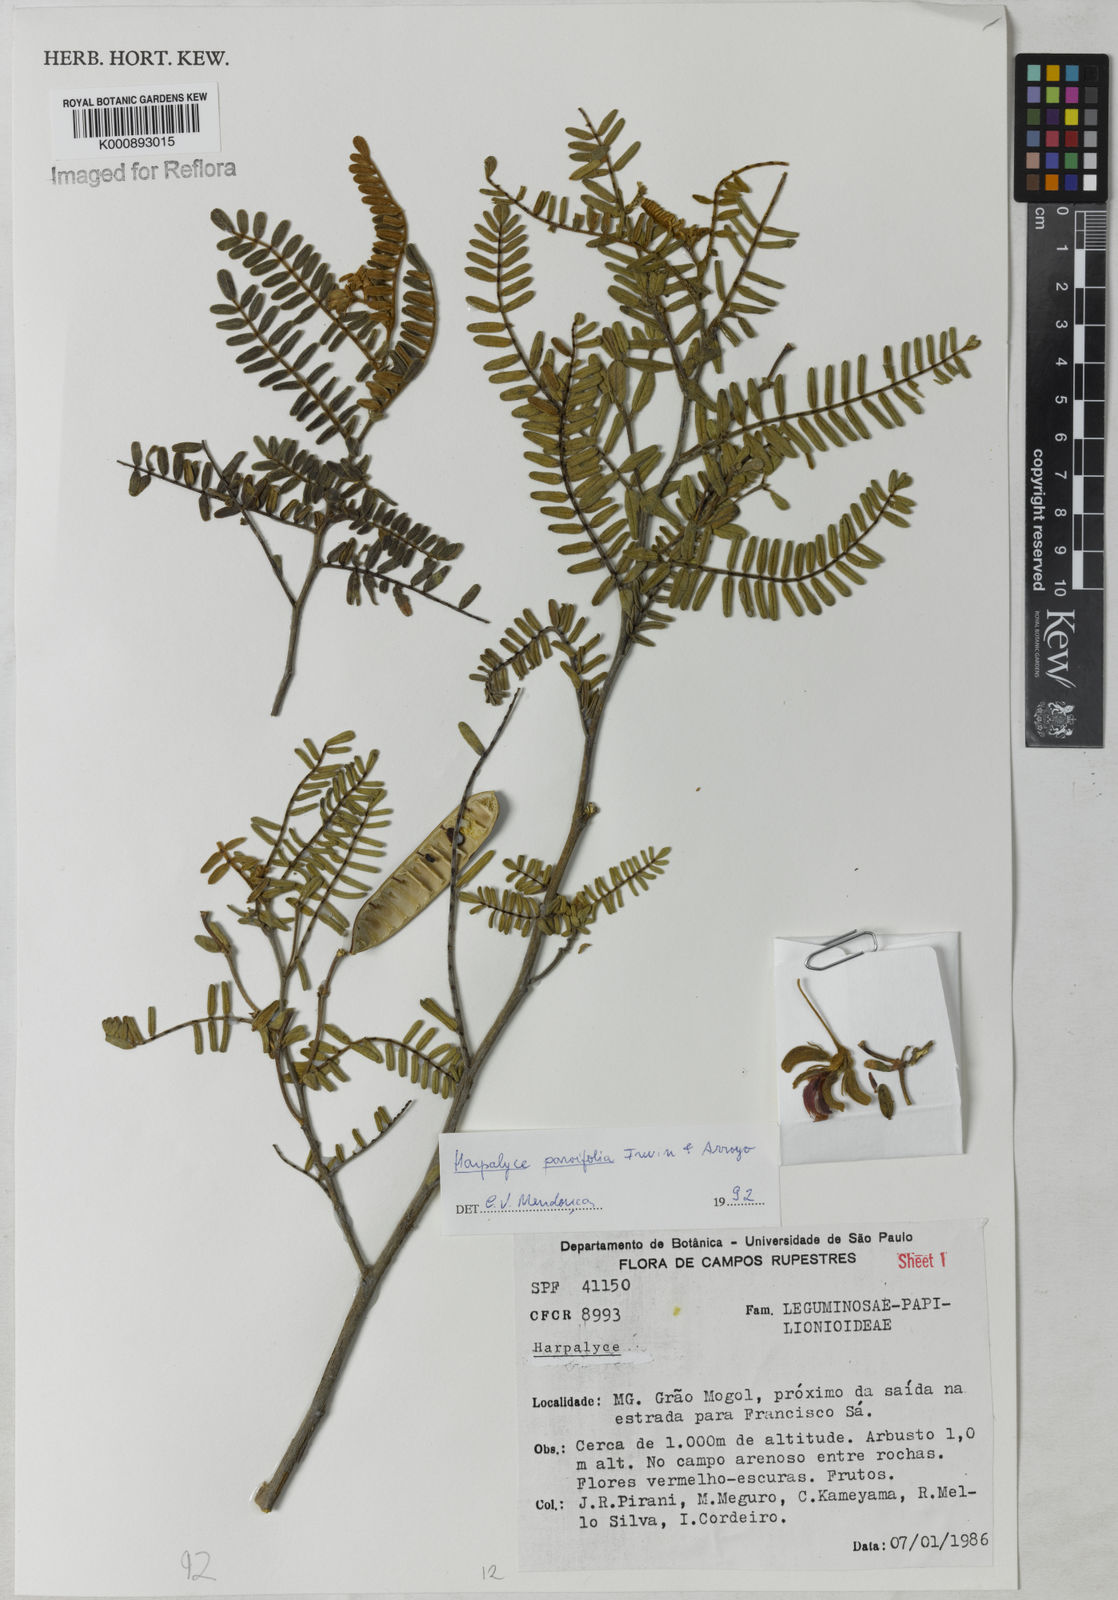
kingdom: Plantae
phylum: Tracheophyta
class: Magnoliopsida
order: Fabales
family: Fabaceae
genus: Harpalyce
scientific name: Harpalyce parvifolia
